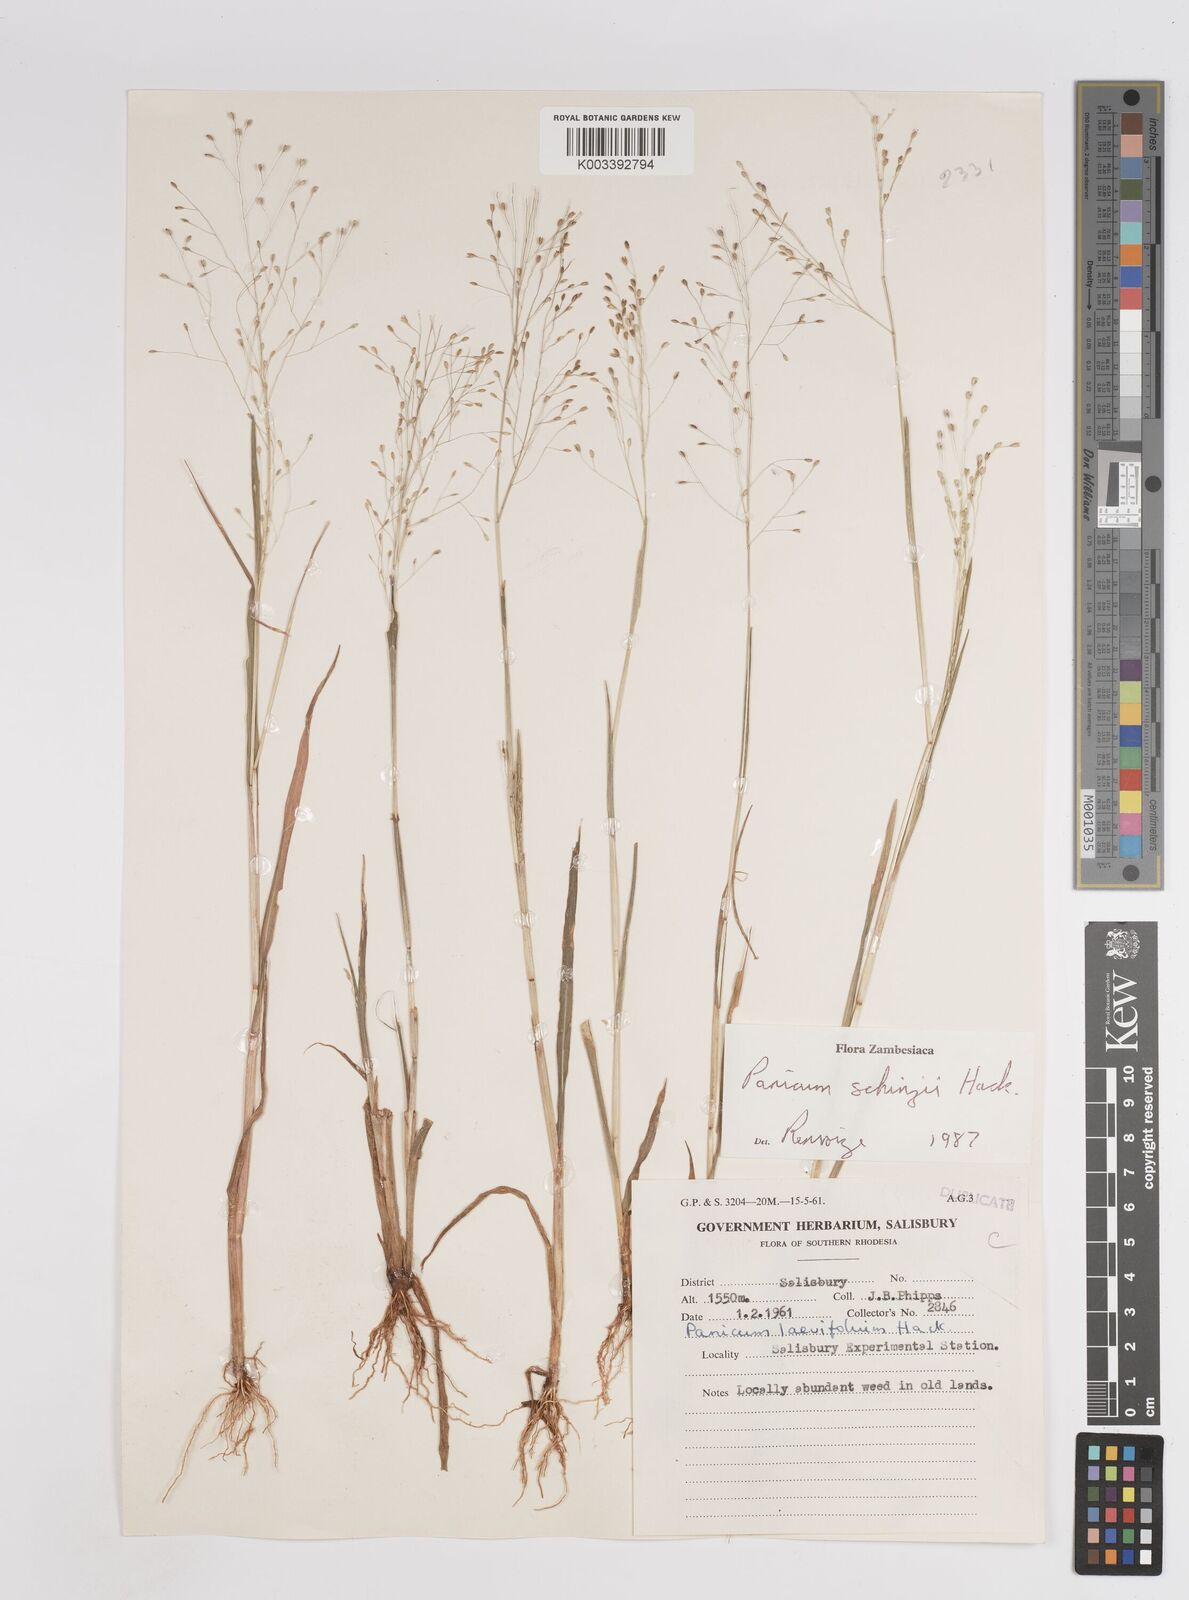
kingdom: Plantae
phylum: Tracheophyta
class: Liliopsida
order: Poales
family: Poaceae
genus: Panicum
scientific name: Panicum schinzii
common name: Sweet grass
